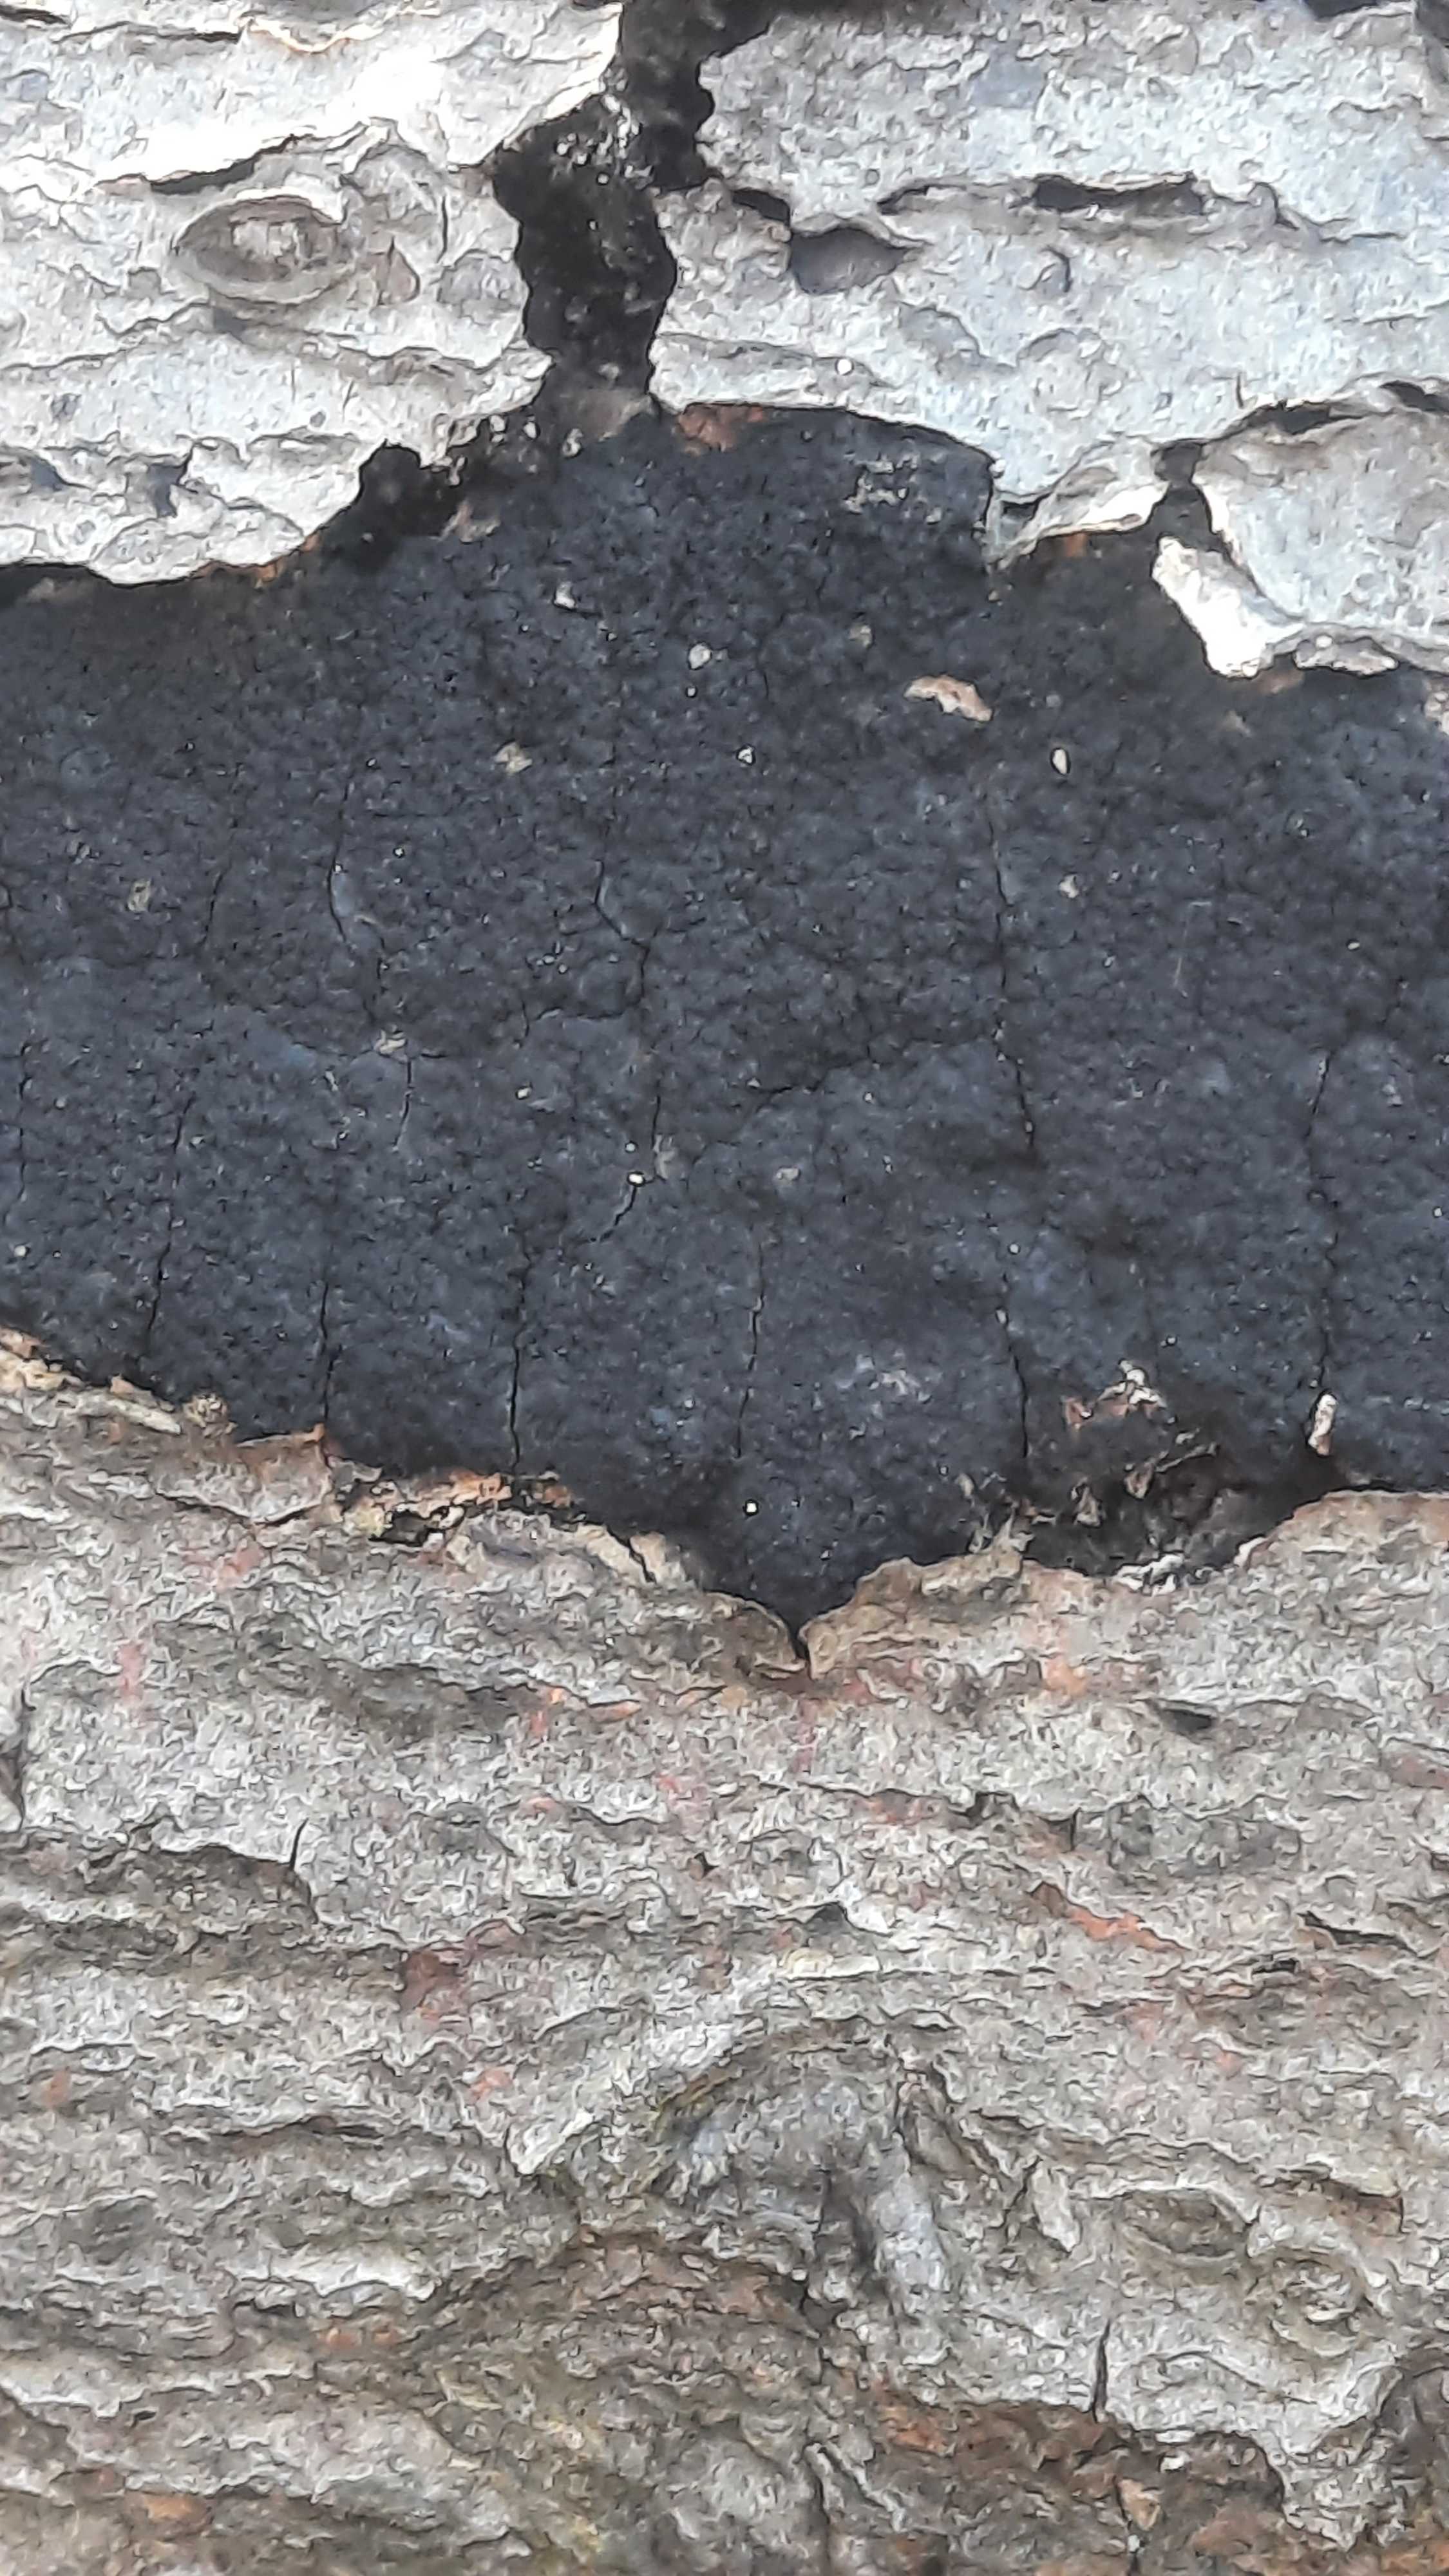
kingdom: Fungi
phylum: Ascomycota
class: Sordariomycetes
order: Xylariales
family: Diatrypaceae
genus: Eutypa
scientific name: Eutypa spinosa
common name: grov kulskorpe
